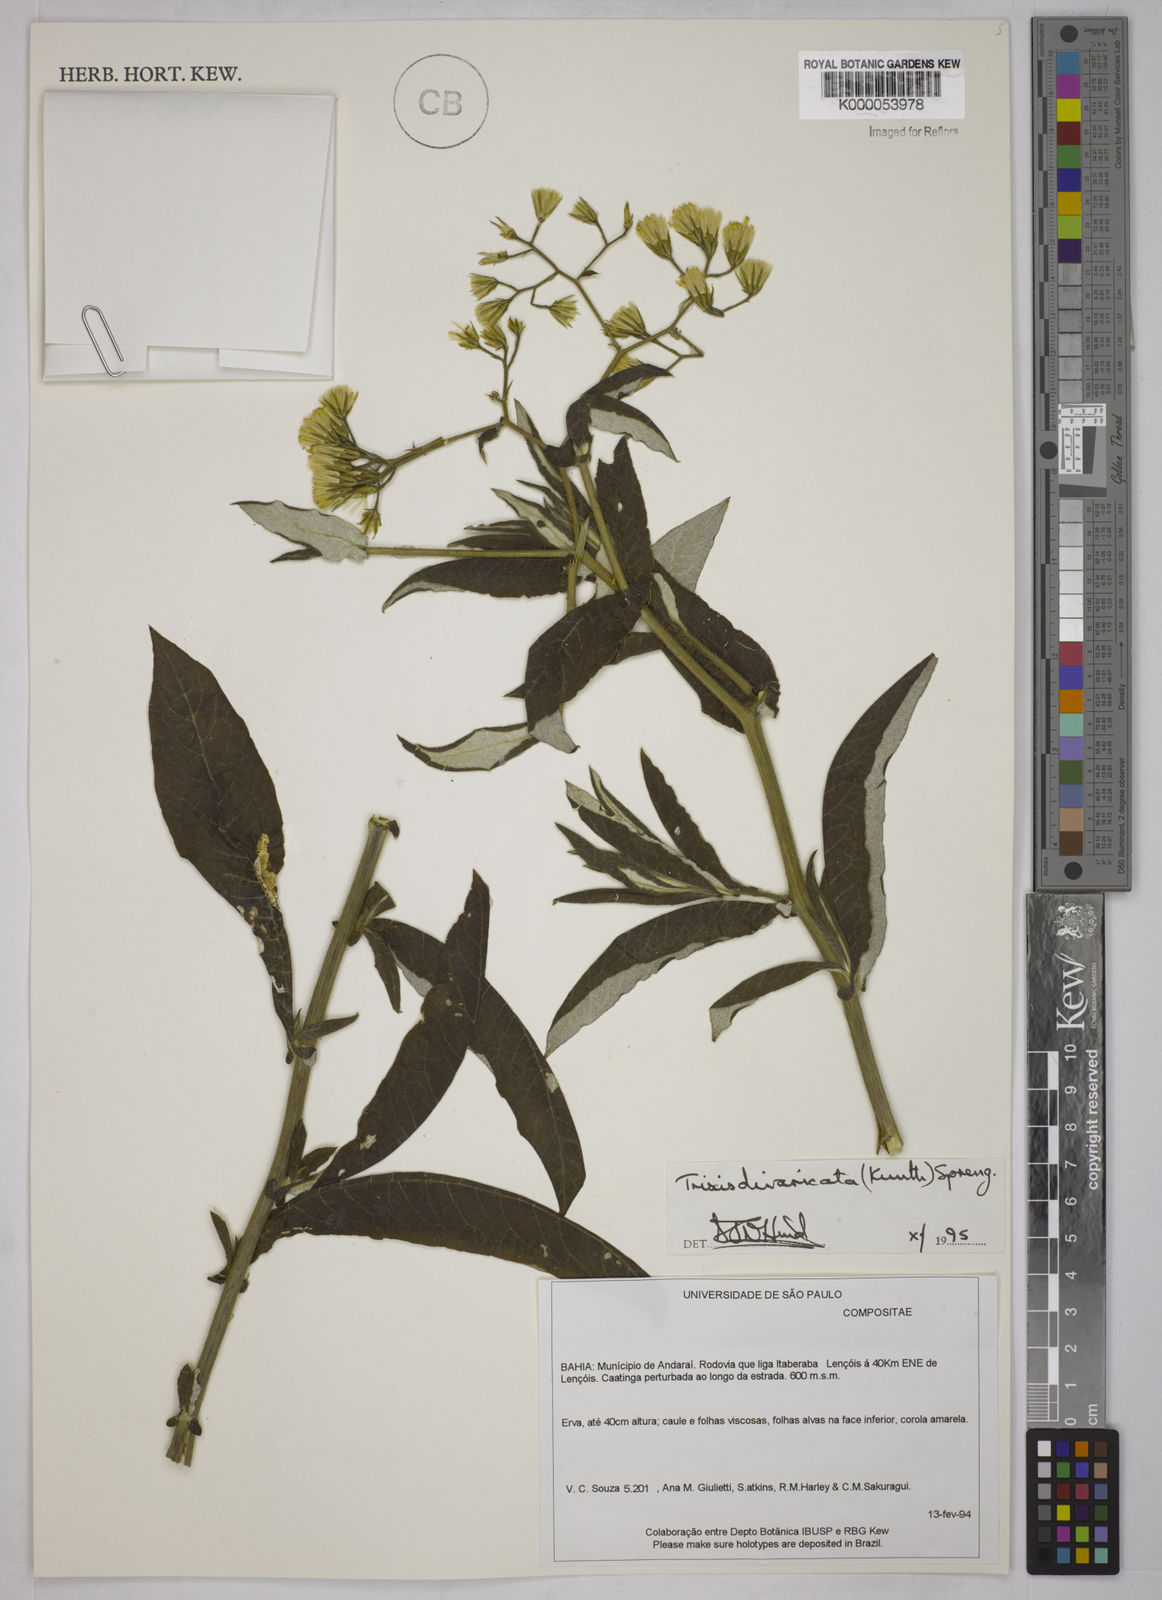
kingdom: Plantae
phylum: Tracheophyta
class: Magnoliopsida
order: Asterales
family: Asteraceae
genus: Trixis
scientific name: Trixis divaricata
